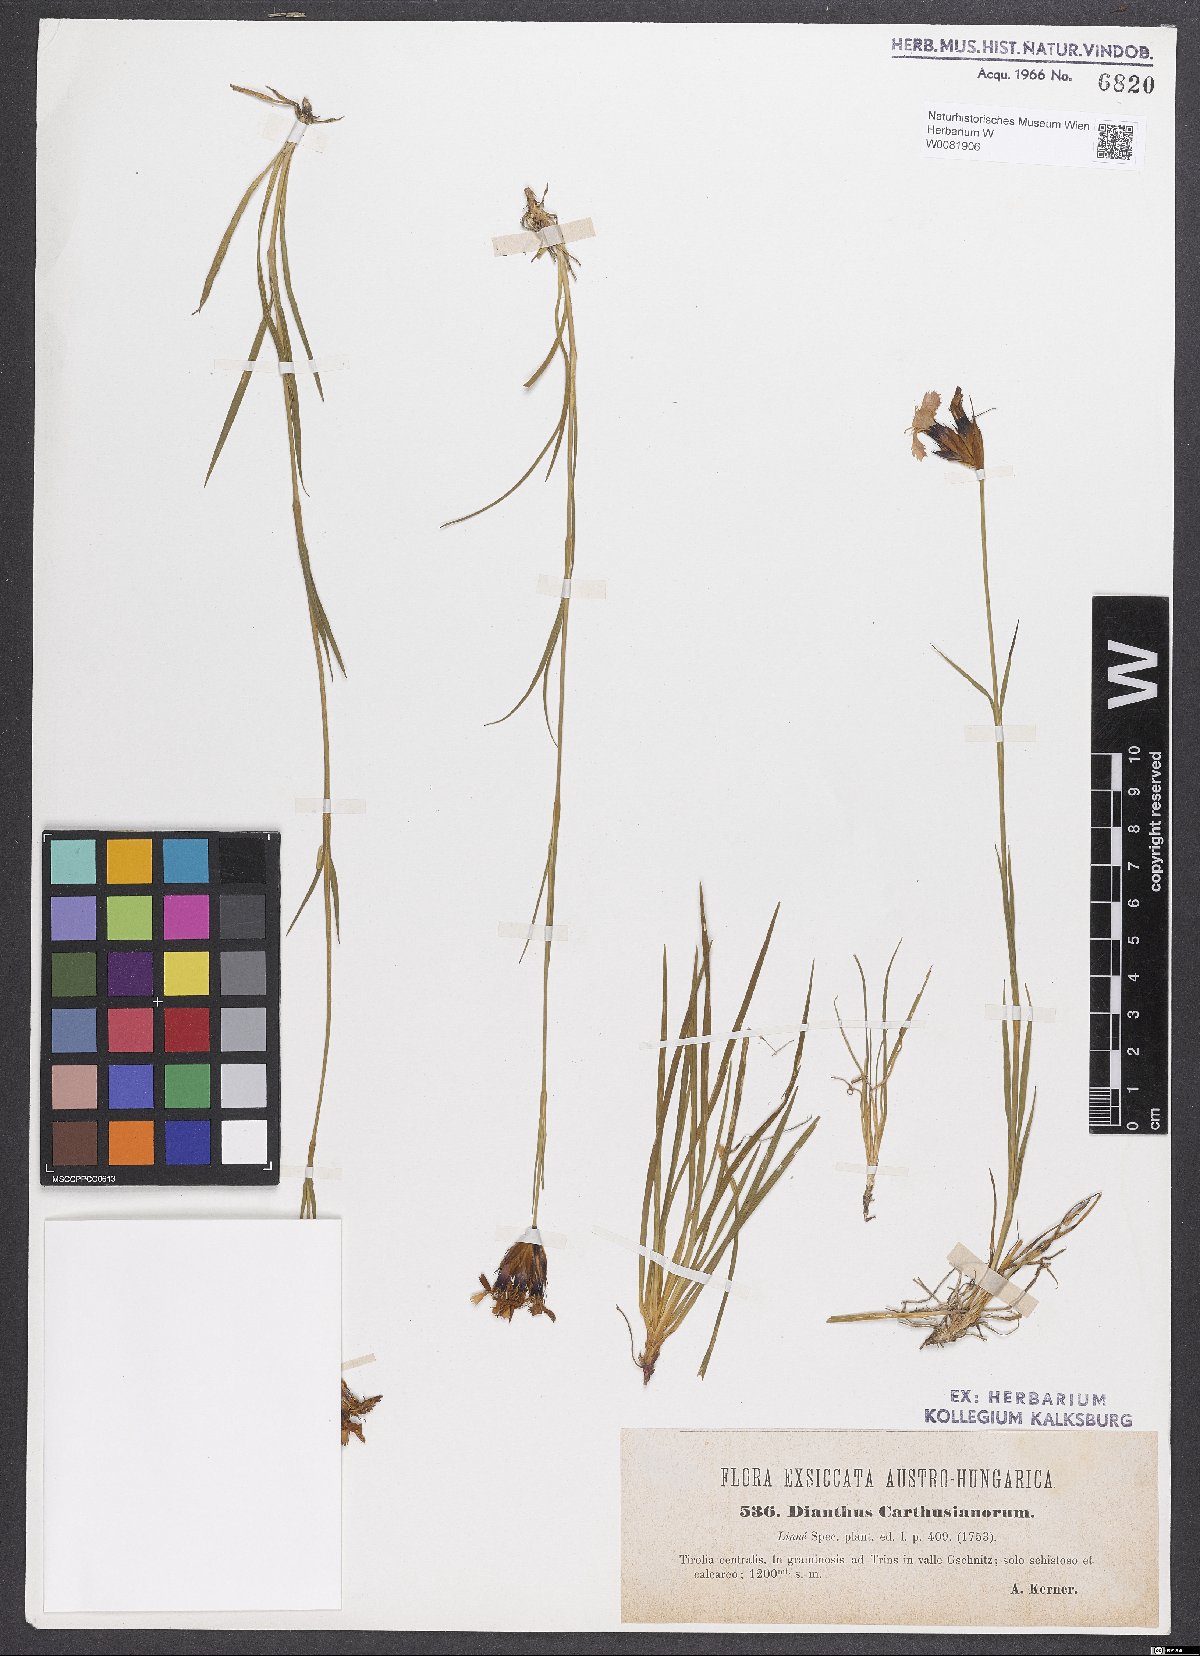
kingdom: Plantae
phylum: Tracheophyta
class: Magnoliopsida
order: Caryophyllales
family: Caryophyllaceae
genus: Dianthus
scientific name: Dianthus carthusianorum
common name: Carthusian pink
